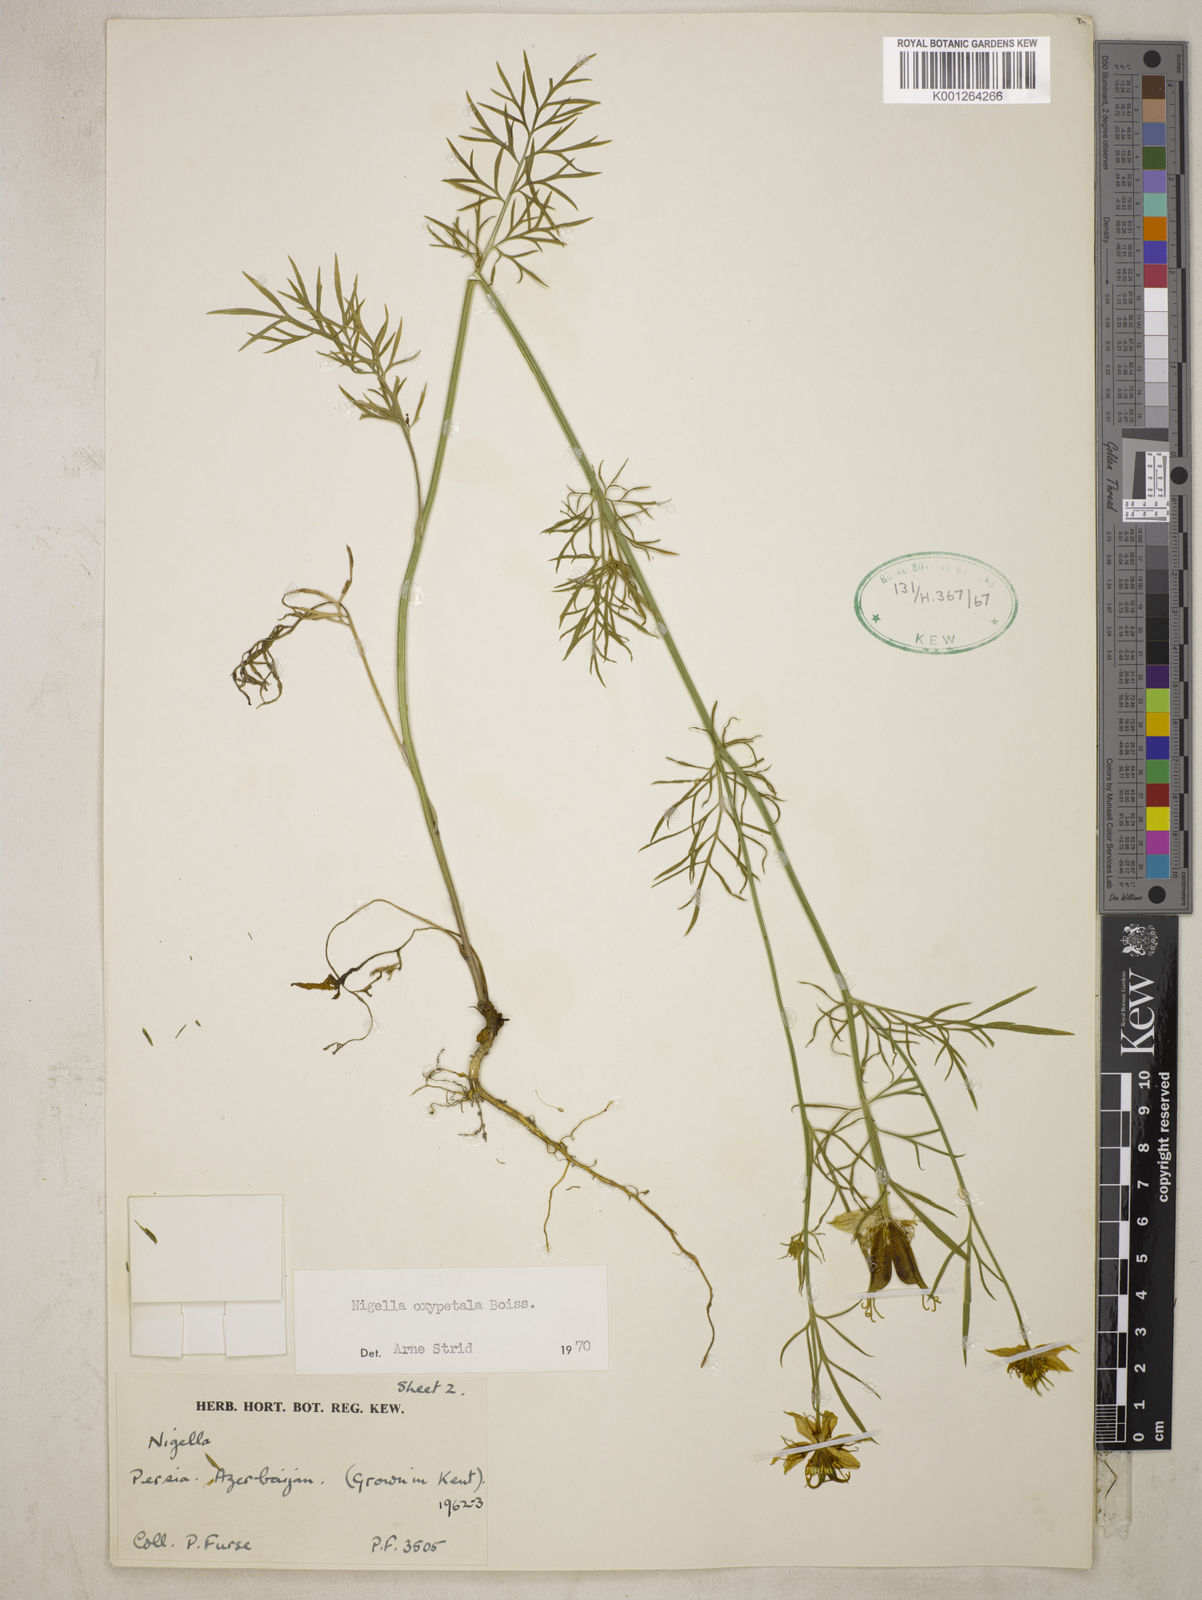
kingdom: Plantae
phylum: Tracheophyta
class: Magnoliopsida
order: Ranunculales
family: Ranunculaceae
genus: Nigella
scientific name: Nigella oxypetala
